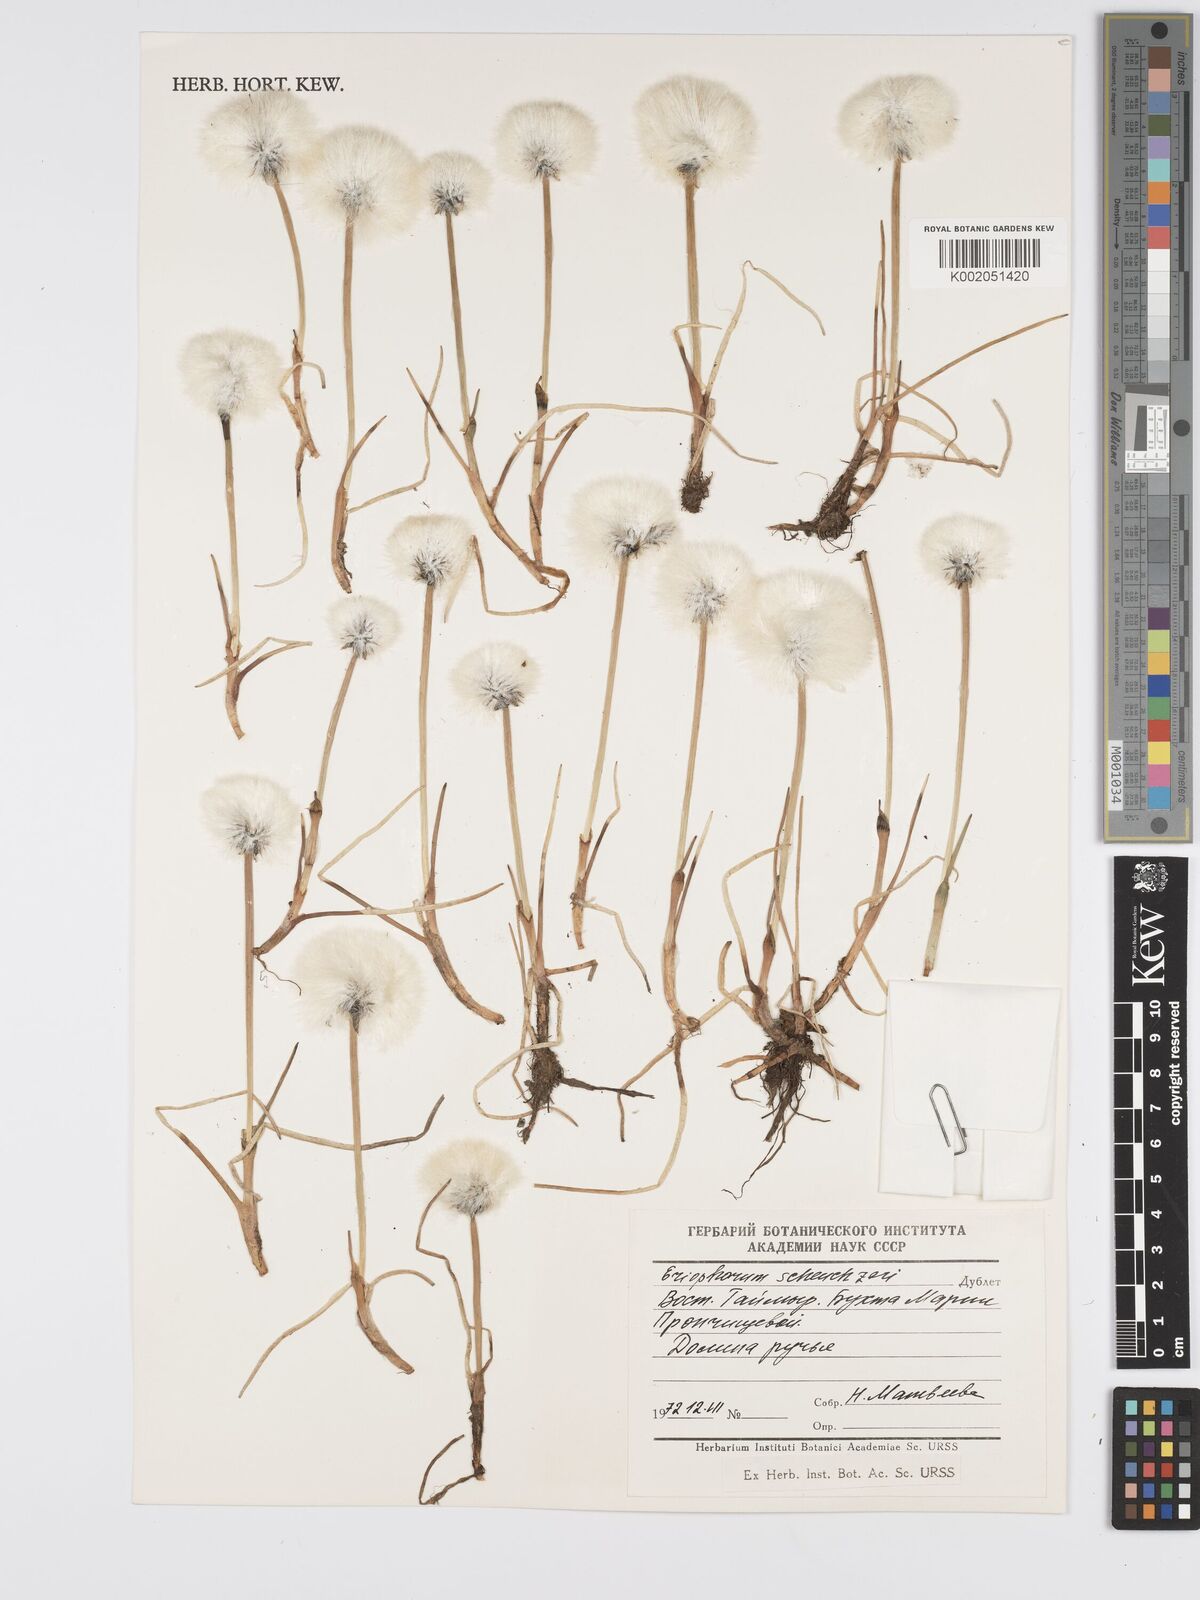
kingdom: Plantae
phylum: Tracheophyta
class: Liliopsida
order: Poales
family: Cyperaceae
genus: Eriophorum
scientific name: Eriophorum scheuchzeri
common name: Scheuchzer's cottongrass
